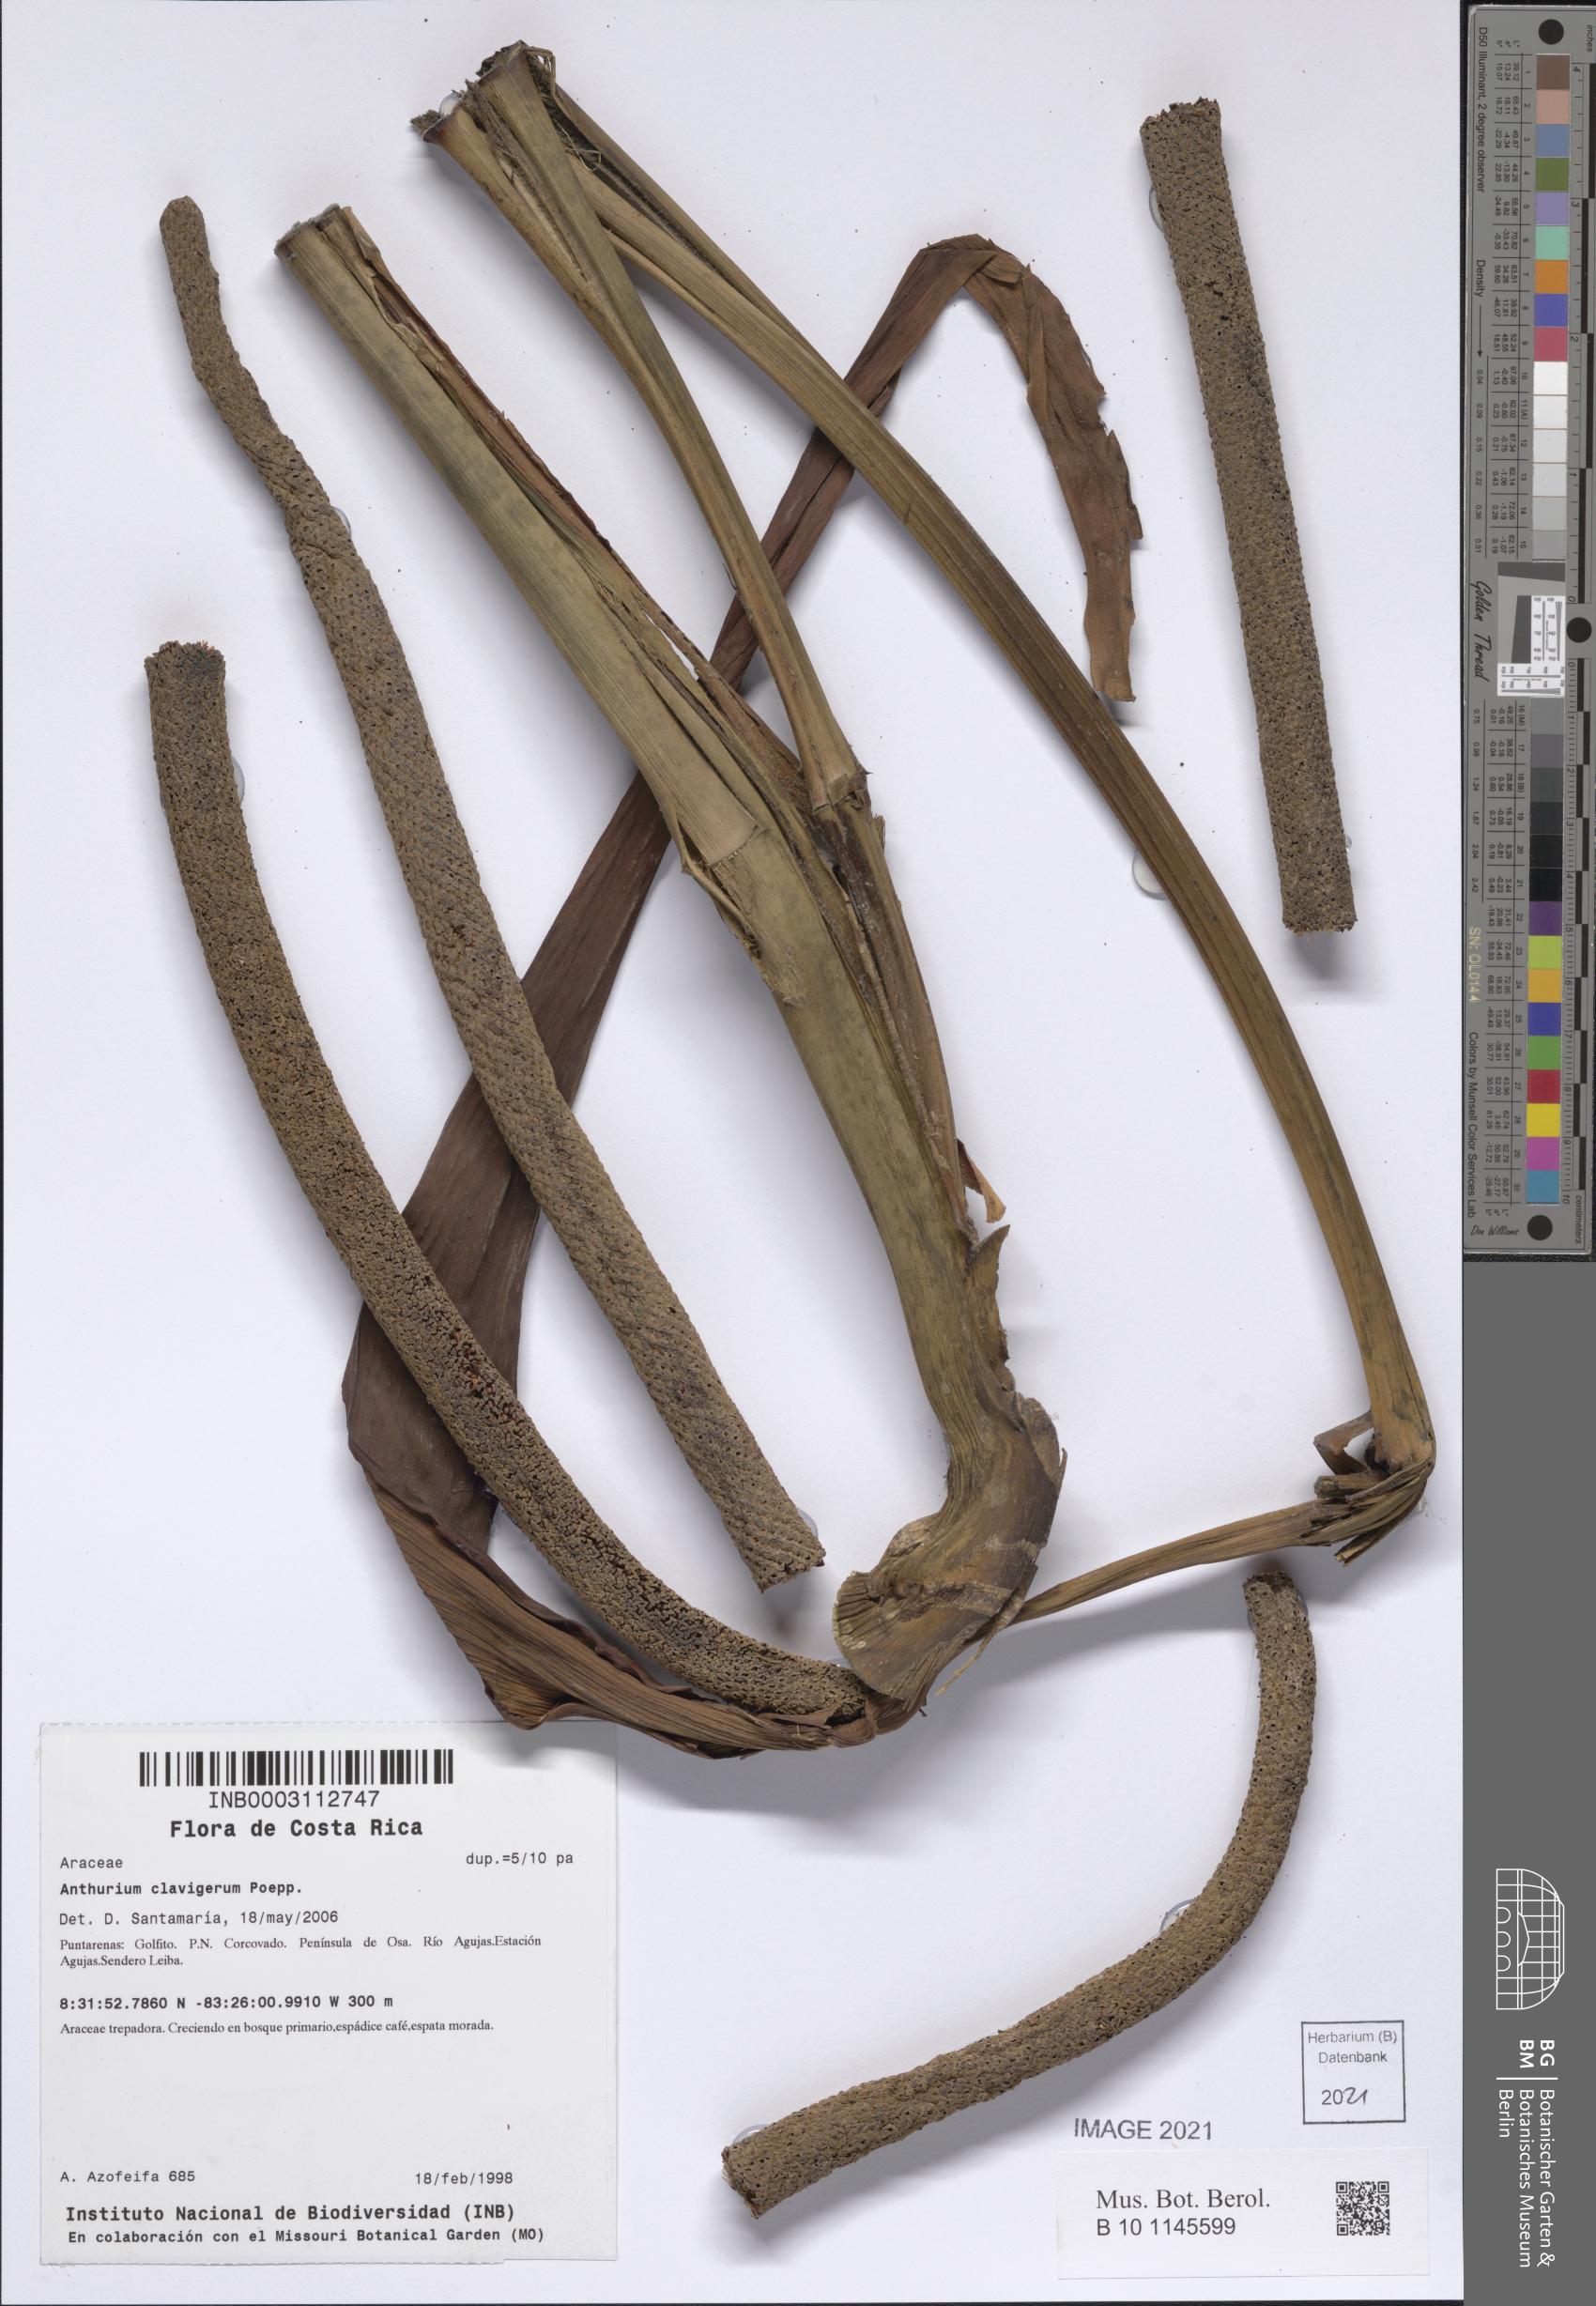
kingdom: Plantae
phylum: Tracheophyta
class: Liliopsida
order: Alismatales
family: Araceae
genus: Anthurium
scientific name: Anthurium clavigerum
